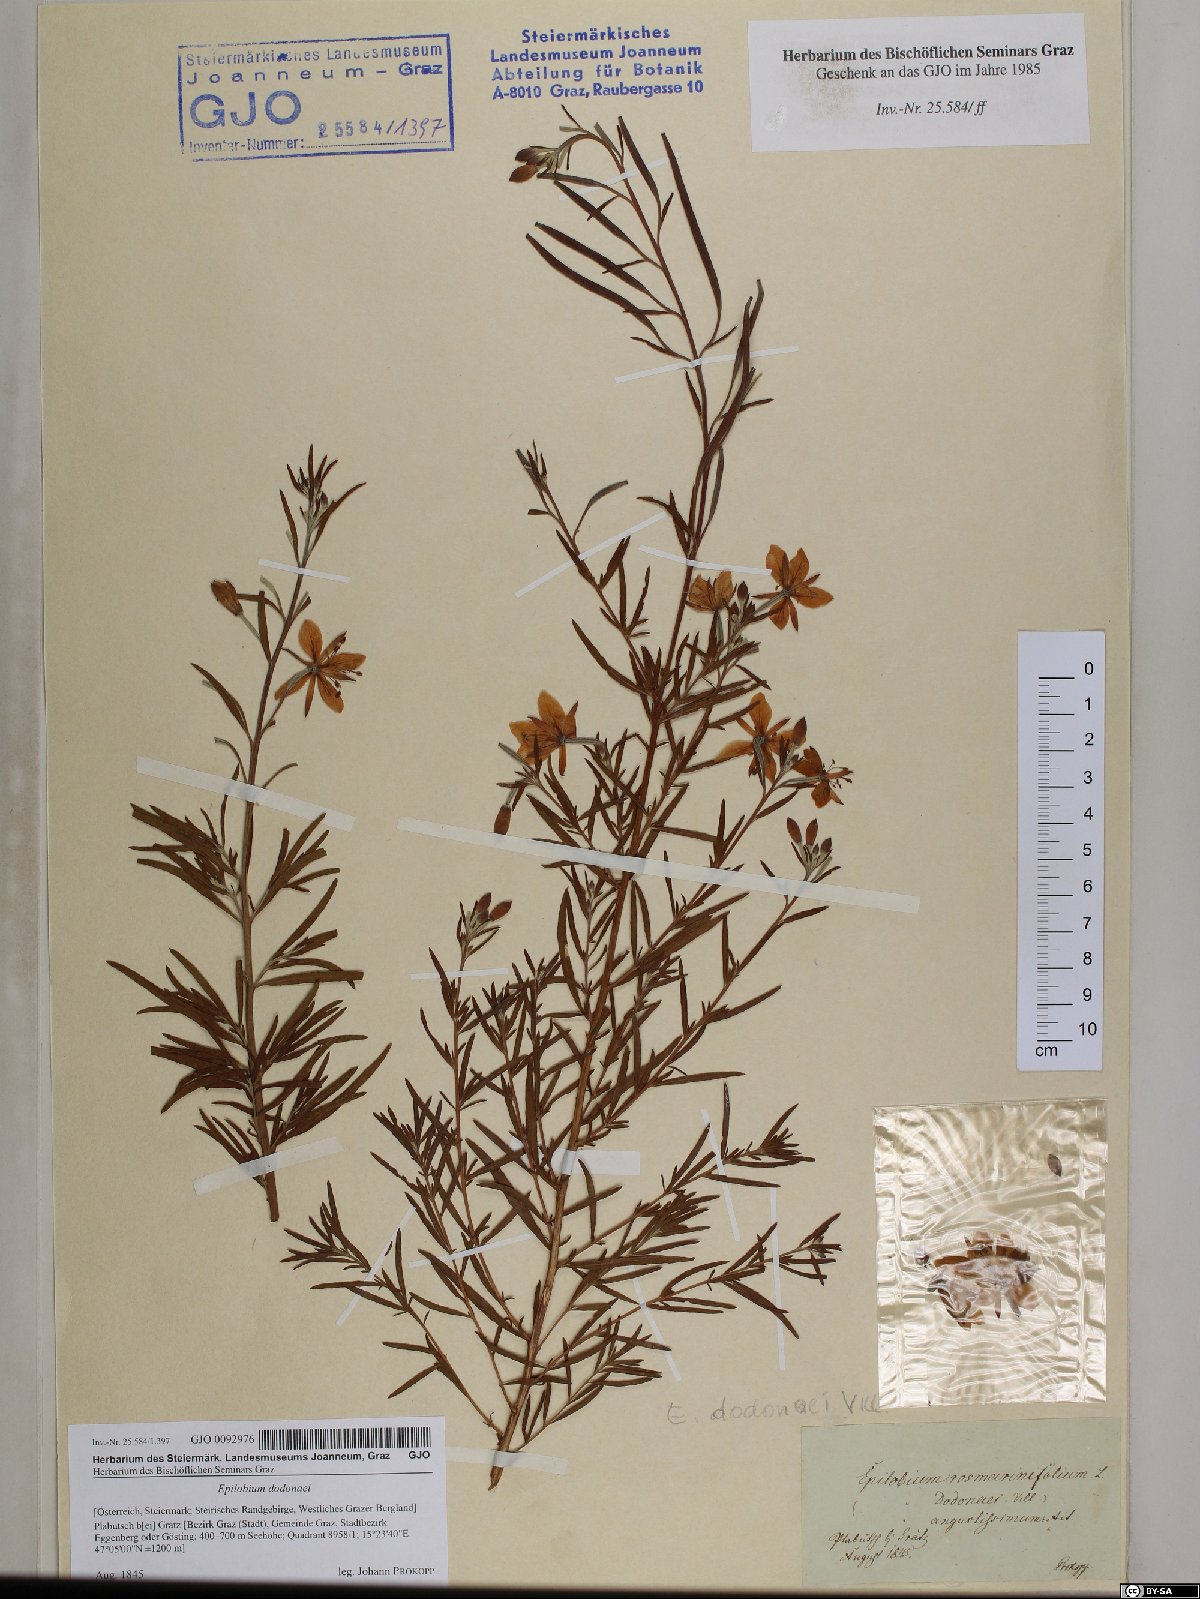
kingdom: Plantae
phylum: Tracheophyta
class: Magnoliopsida
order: Myrtales
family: Onagraceae
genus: Chamaenerion
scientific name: Chamaenerion dodonaei
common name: Rosemary-leaved willowherb
